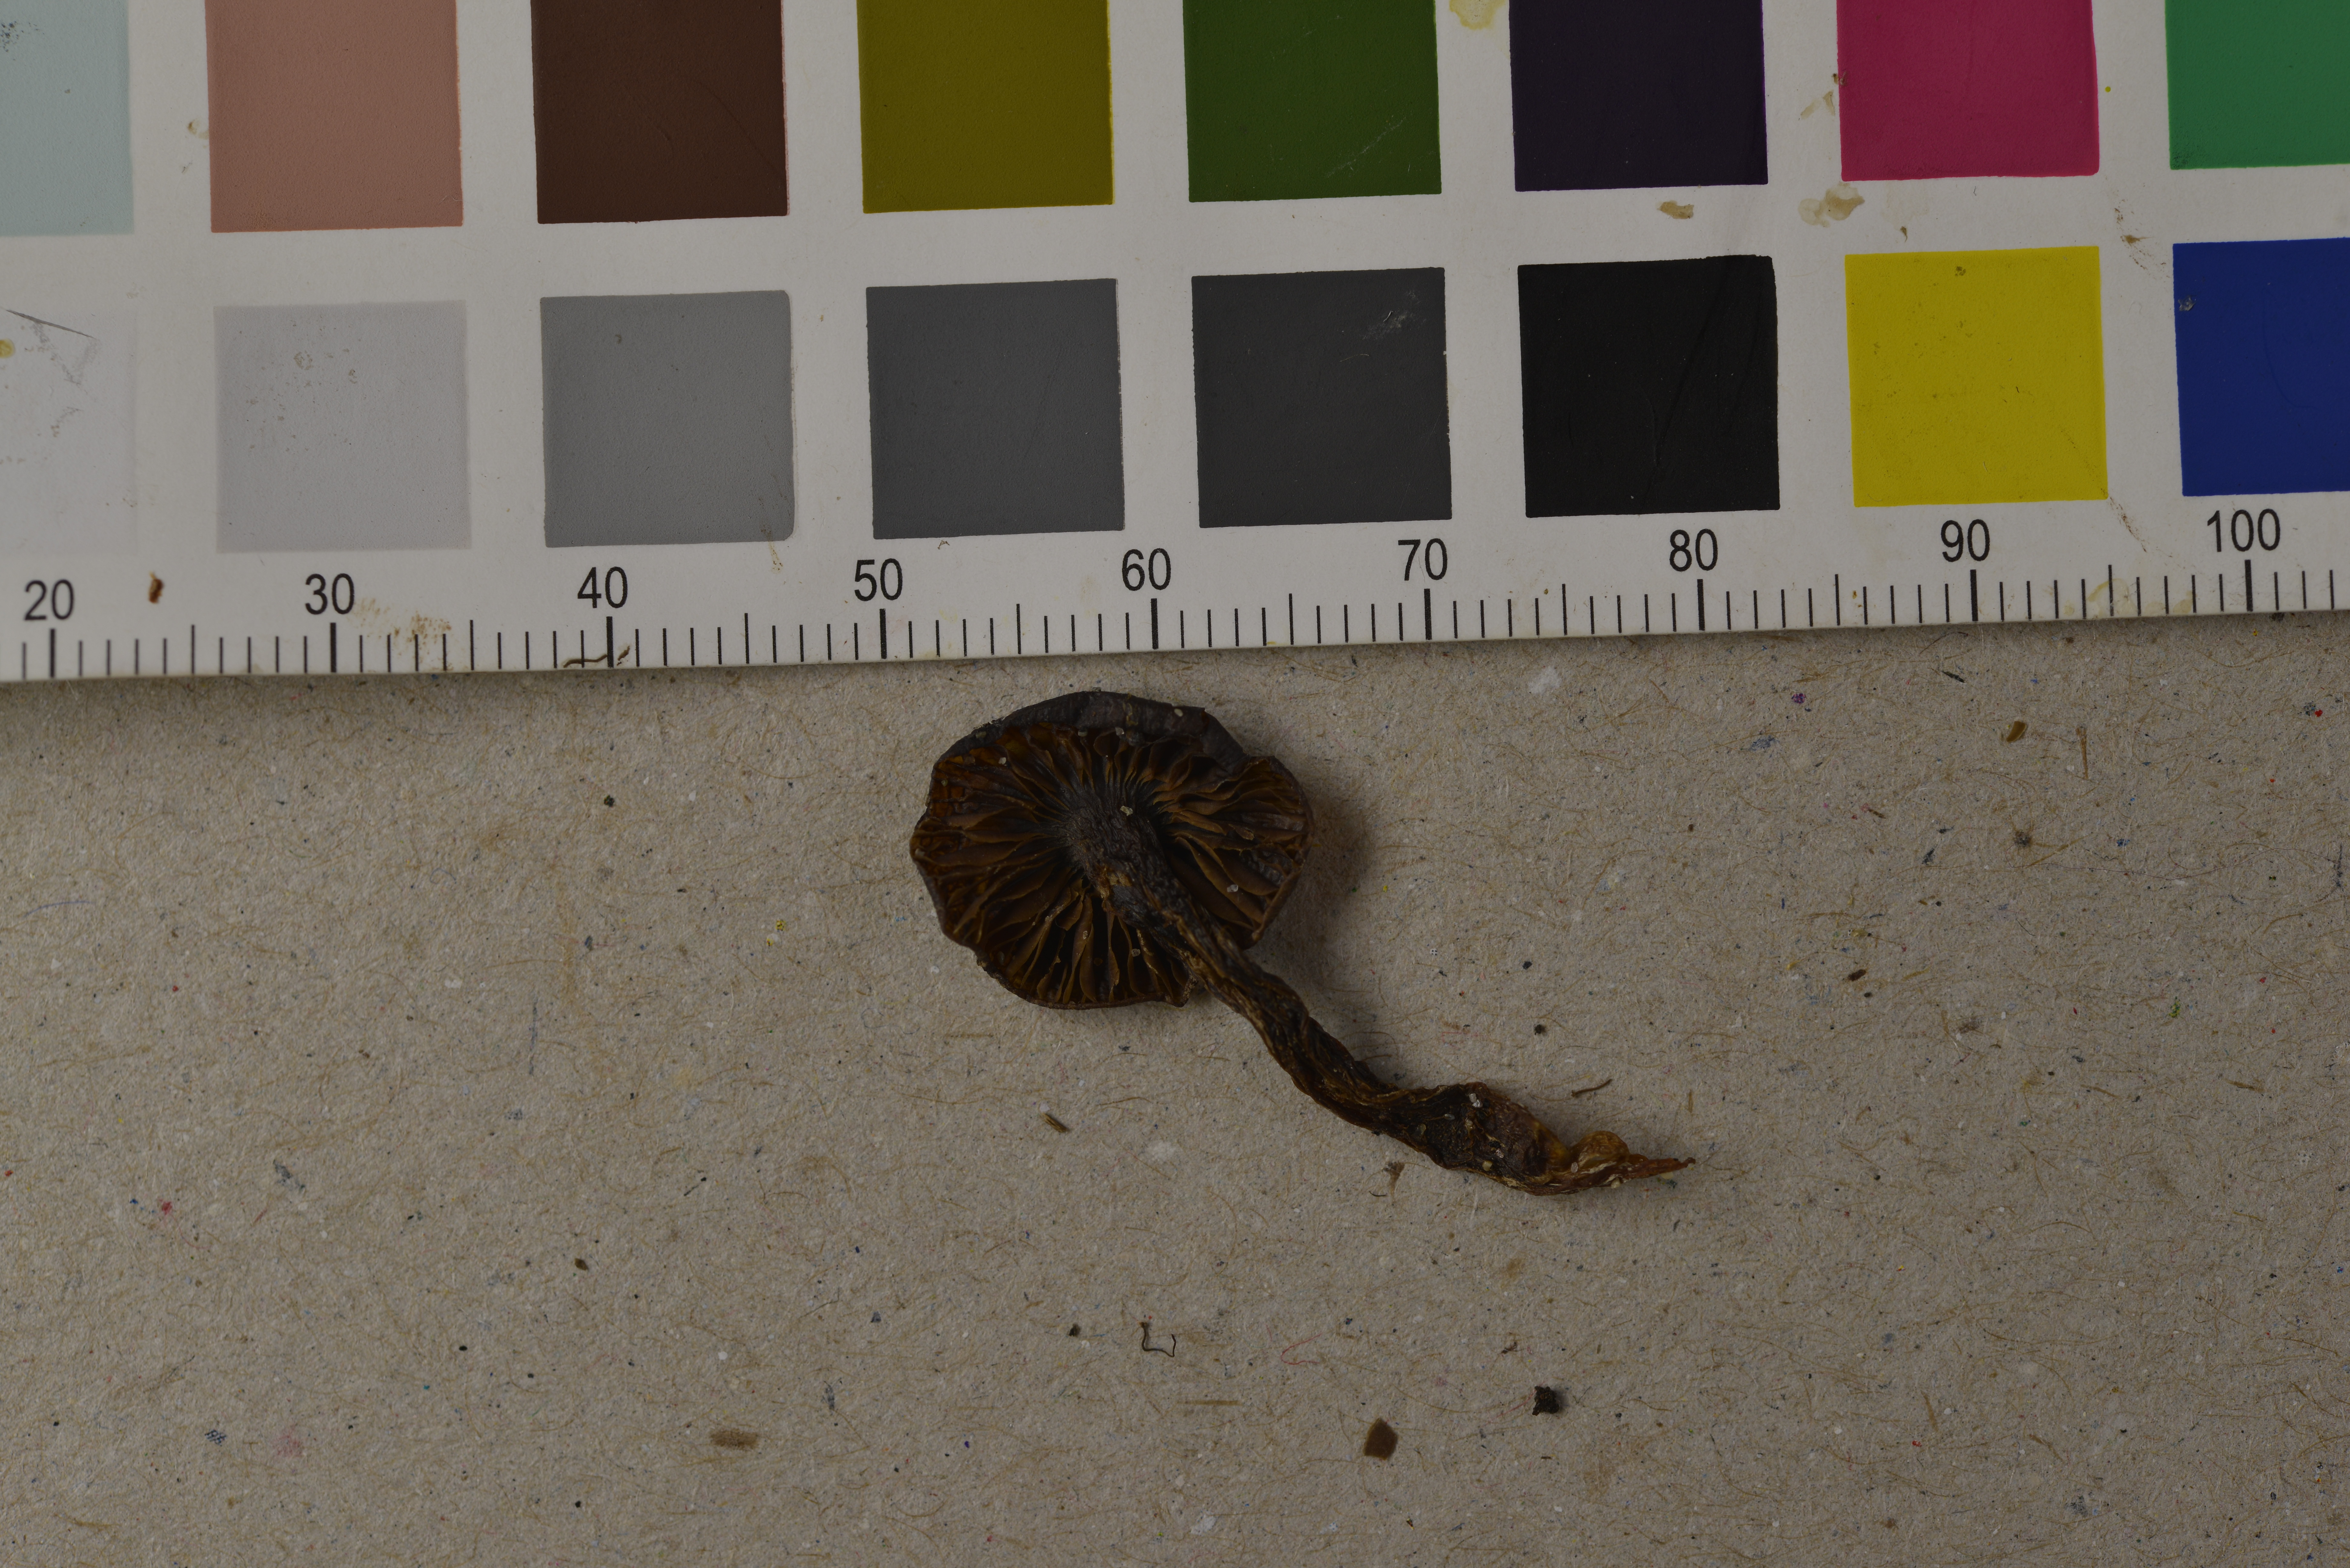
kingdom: Fungi
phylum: Basidiomycota
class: Agaricomycetes
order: Agaricales
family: Entolomataceae
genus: Entoloma
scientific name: Entoloma undulatosporum
